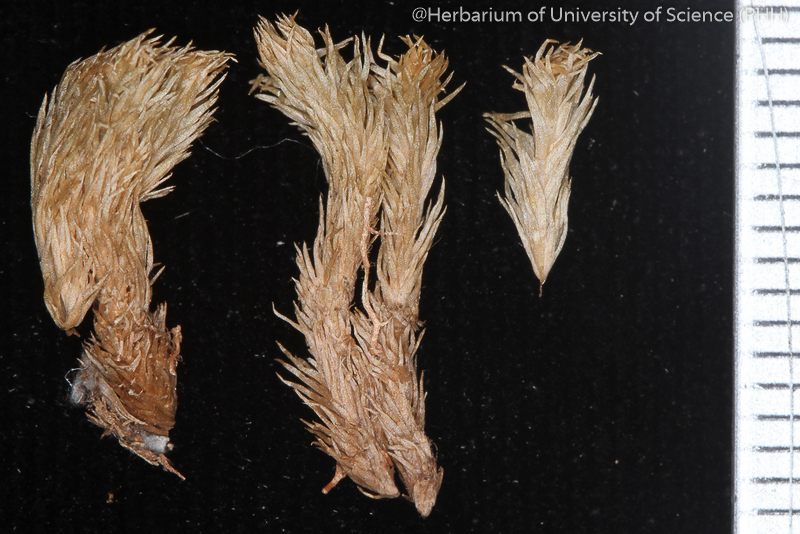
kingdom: Plantae
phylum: Bryophyta
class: Bryopsida
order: Dicranales
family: Leucobryaceae
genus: Leucobryum
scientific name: Leucobryum neilgherrense
